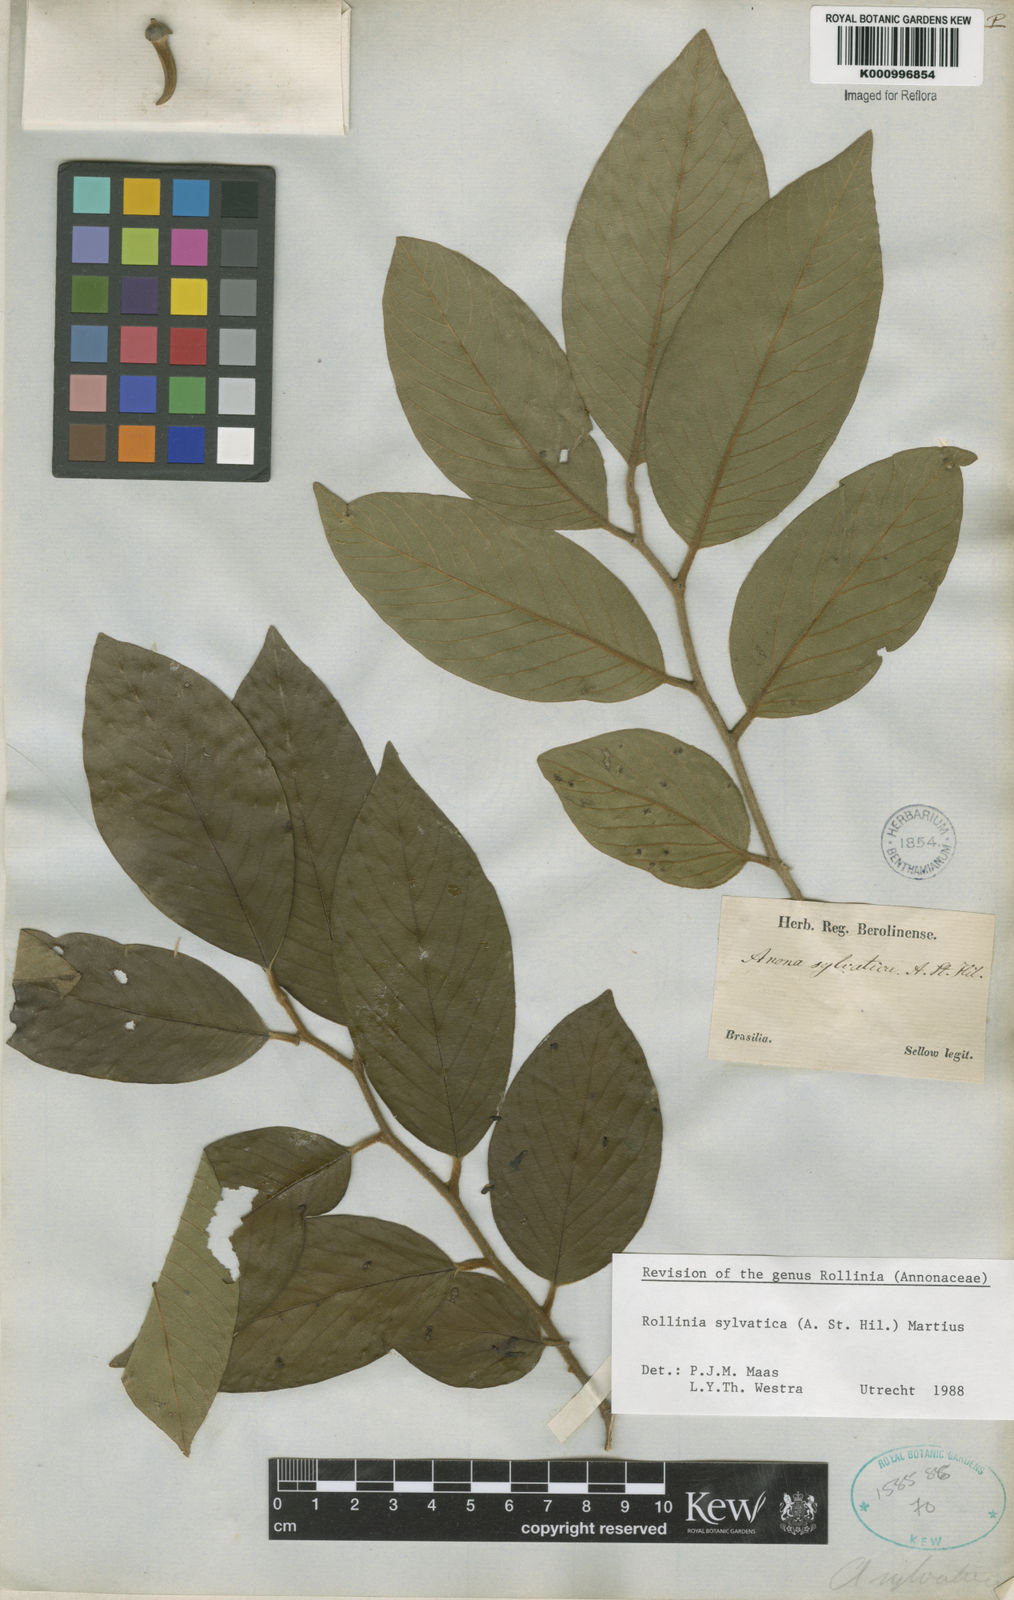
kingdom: Plantae
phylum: Tracheophyta
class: Magnoliopsida
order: Magnoliales
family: Annonaceae
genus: Annona
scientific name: Annona sylvatica
